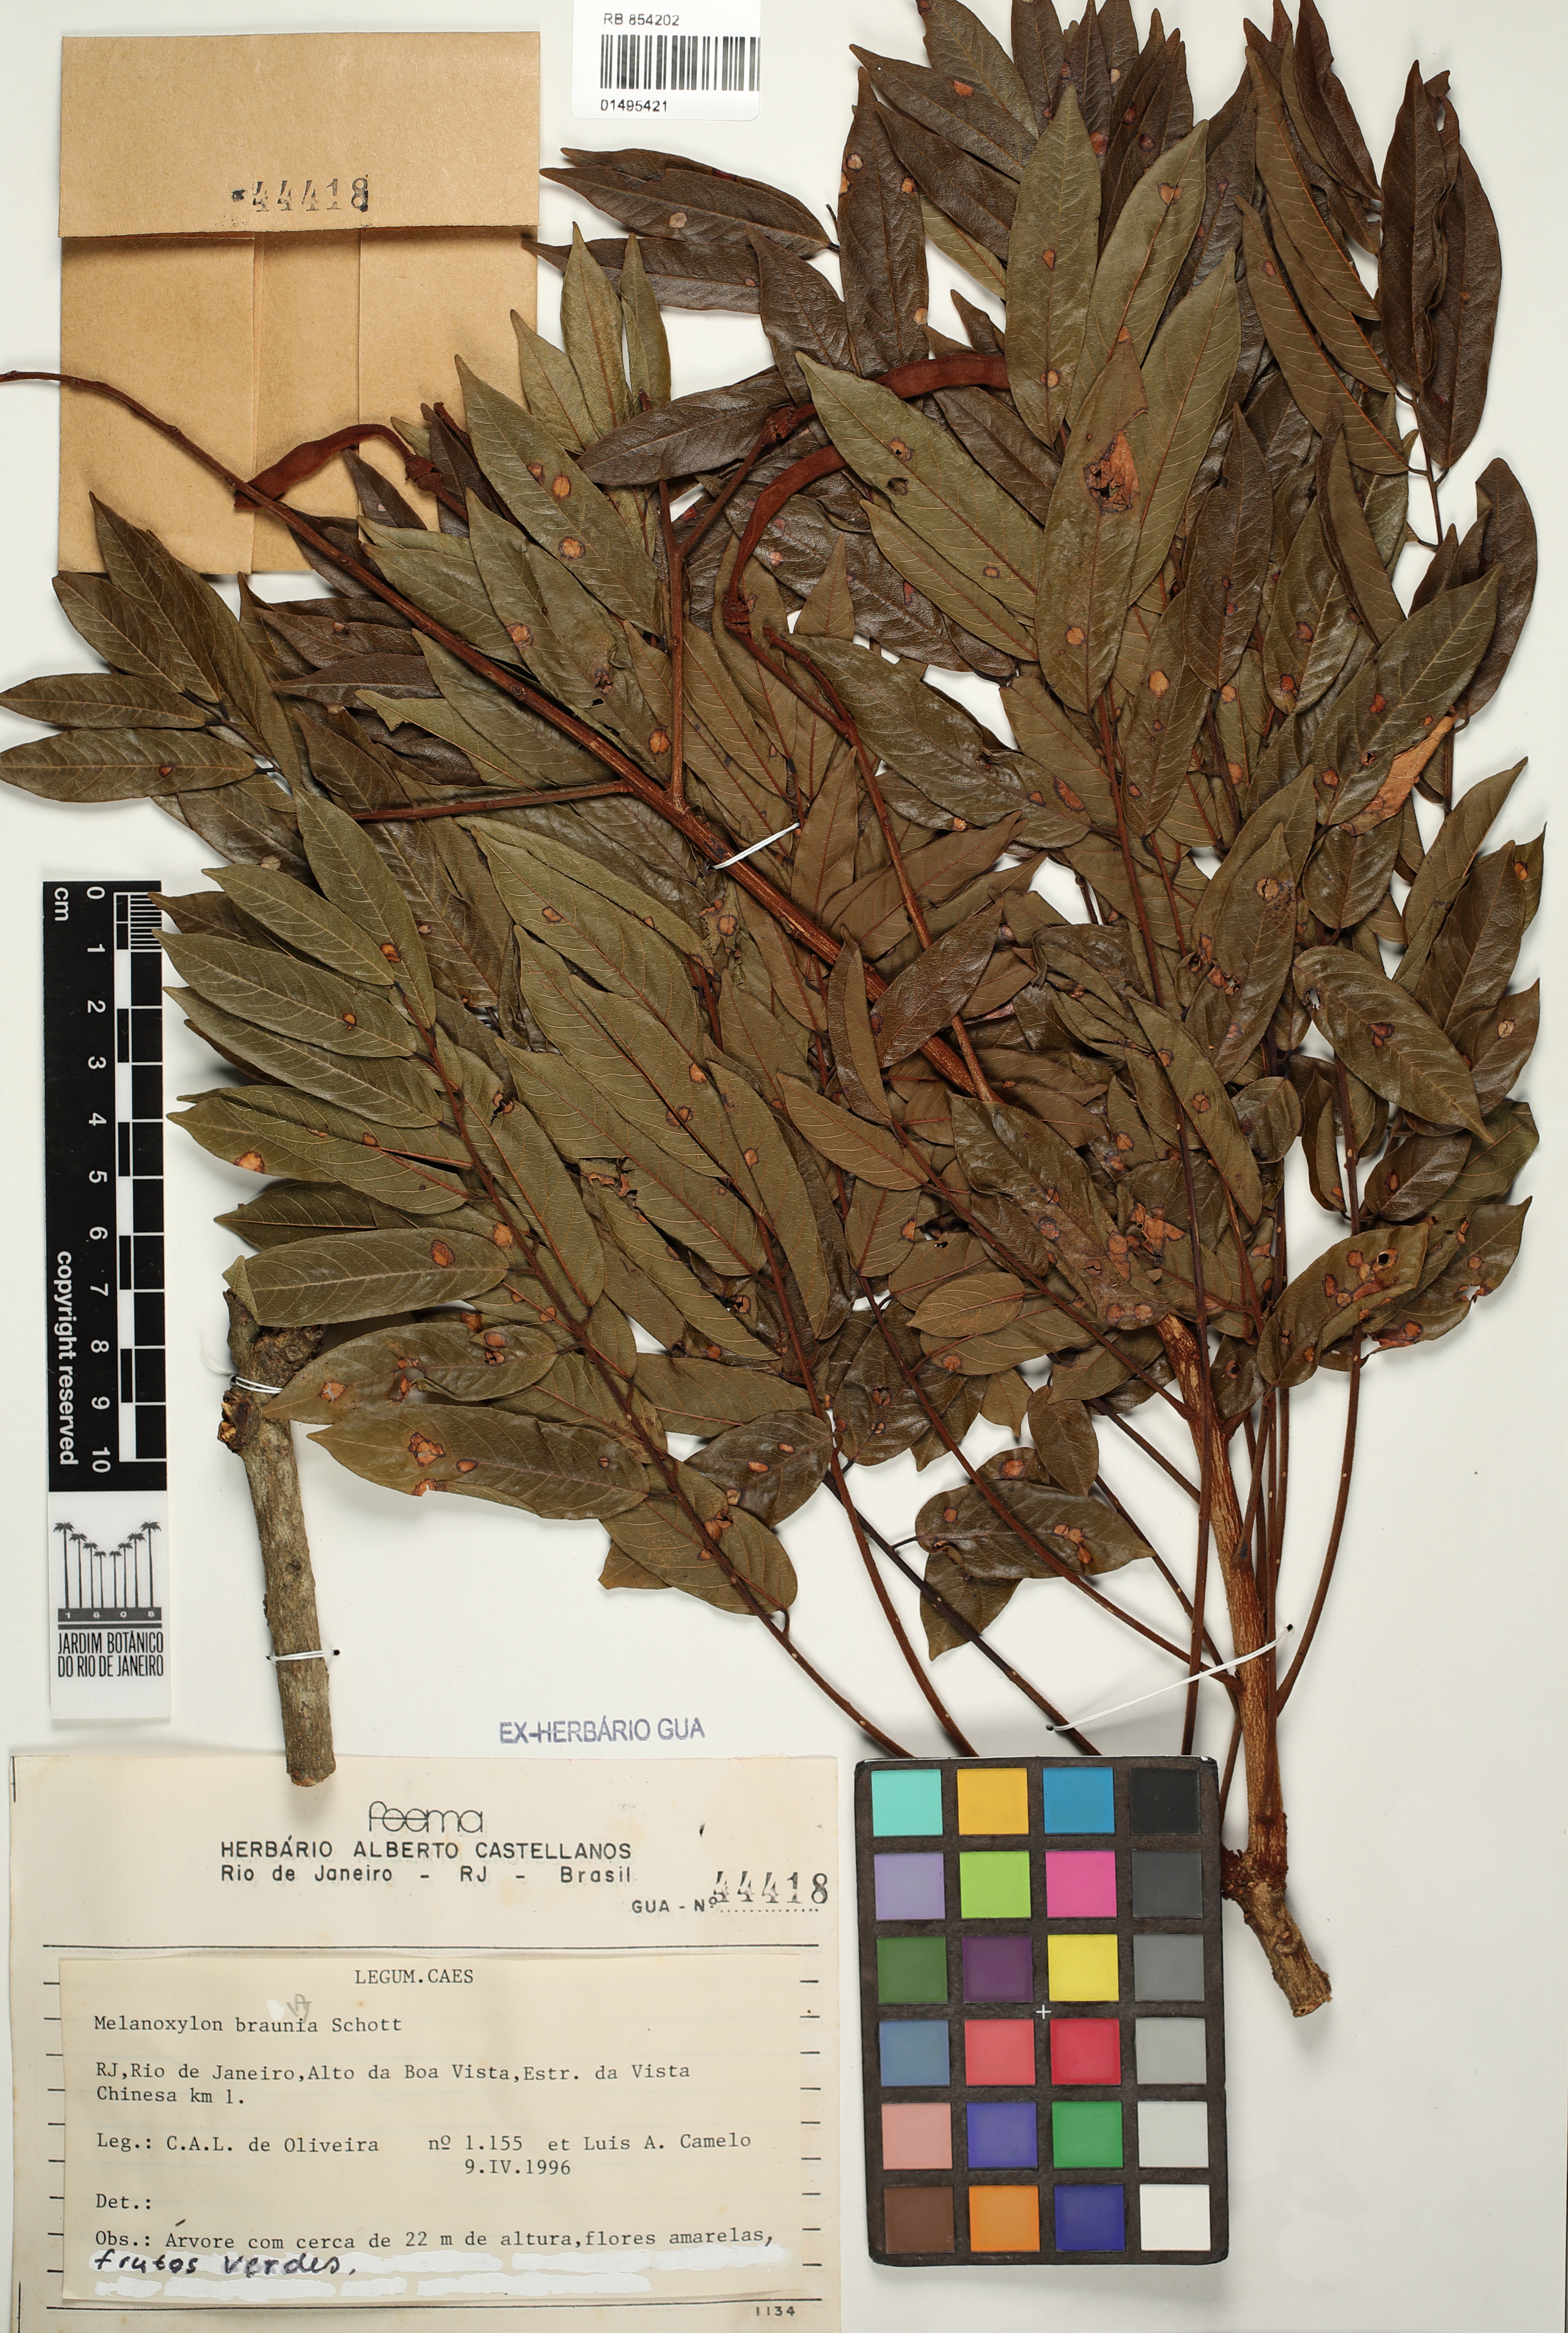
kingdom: Plantae
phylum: Tracheophyta
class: Magnoliopsida
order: Fabales
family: Fabaceae
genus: Melanoxylon
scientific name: Melanoxylon brauna
